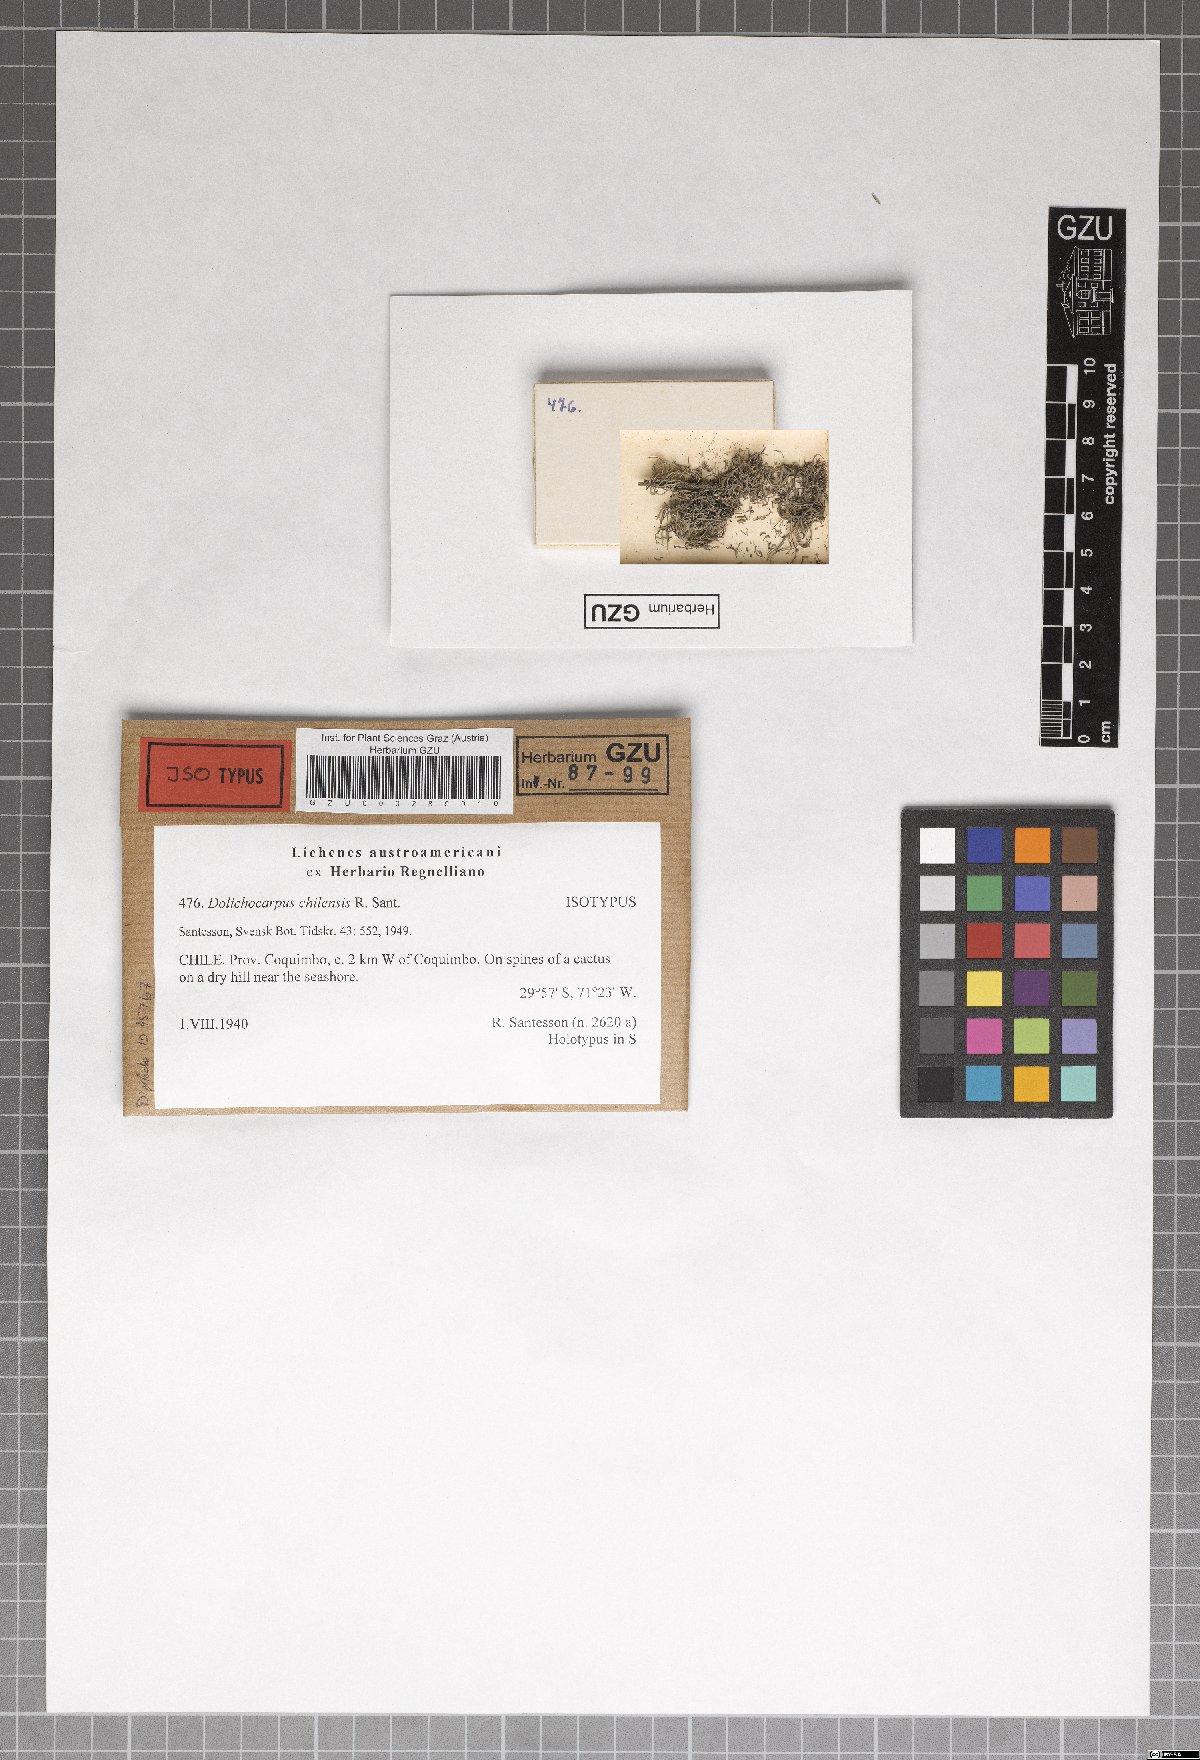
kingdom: Fungi
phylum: Ascomycota
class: Arthoniomycetes
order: Arthoniales
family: Opegraphaceae
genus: Dolichocarpus
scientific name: Dolichocarpus chilensis
